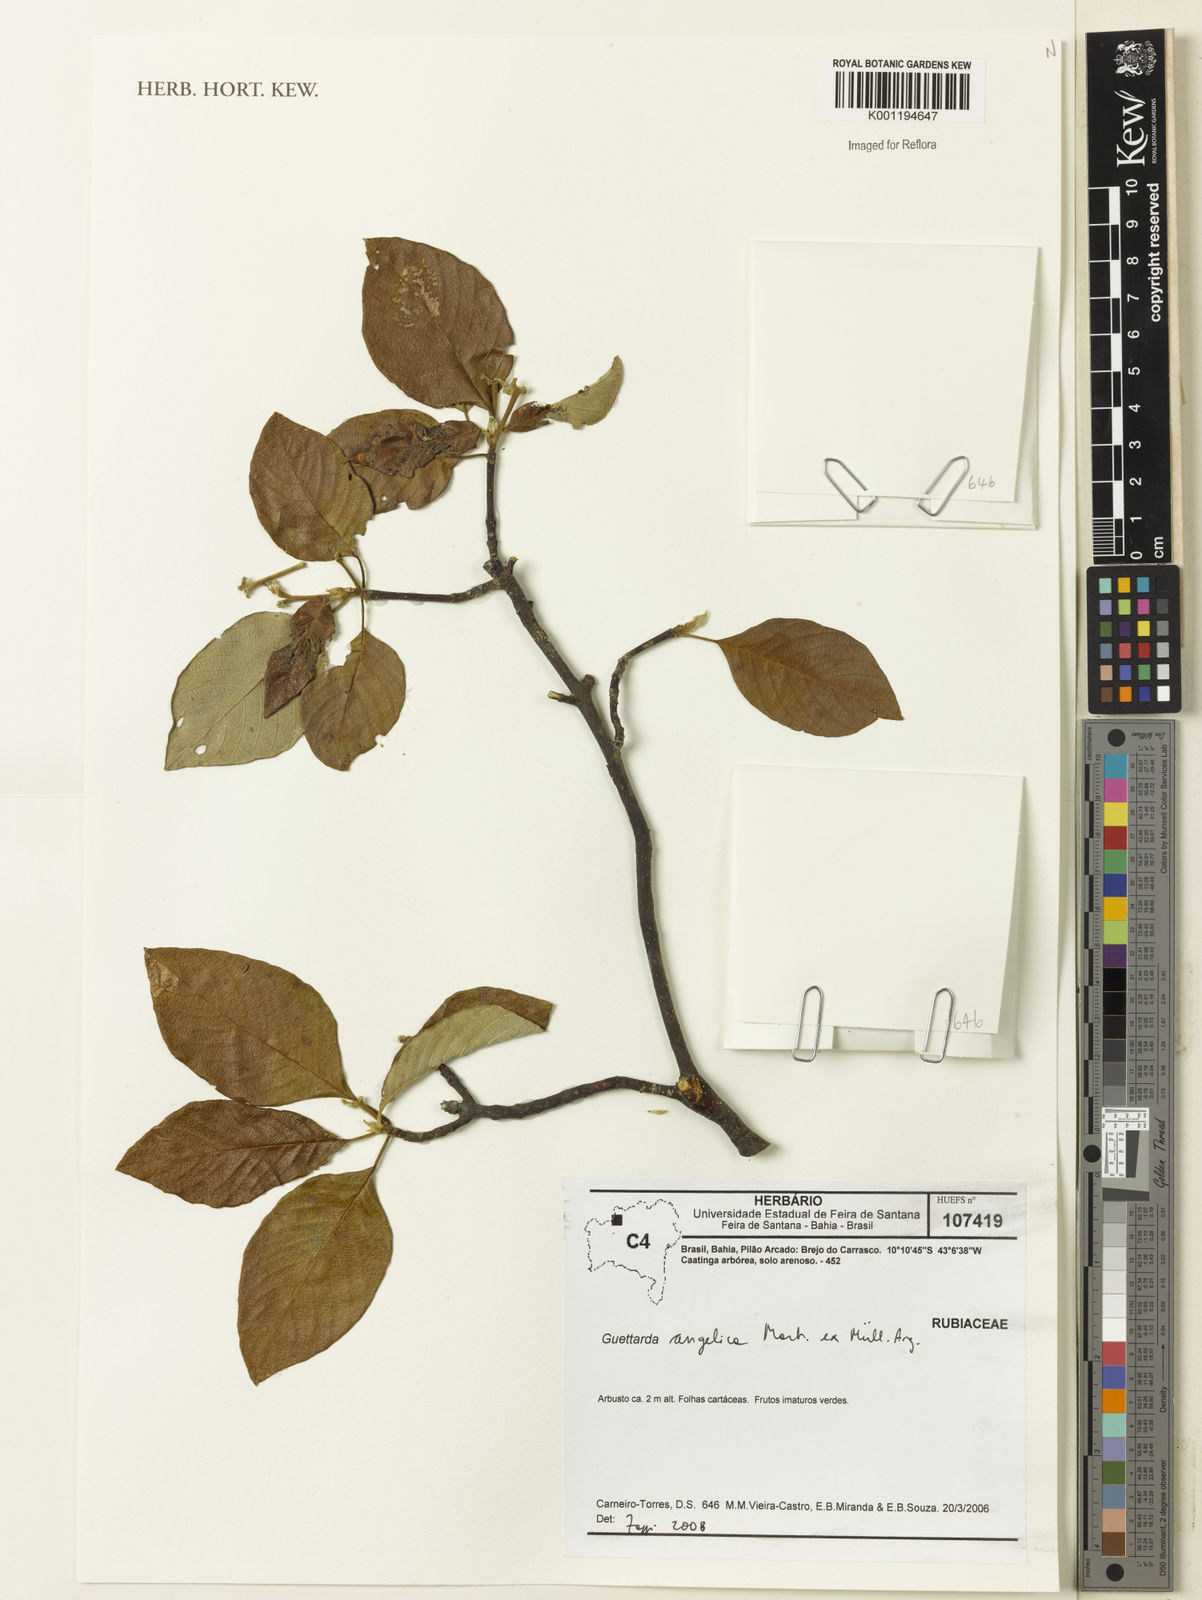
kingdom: Plantae
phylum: Tracheophyta
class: Magnoliopsida
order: Gentianales
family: Rubiaceae
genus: Guettarda
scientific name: Guettarda
